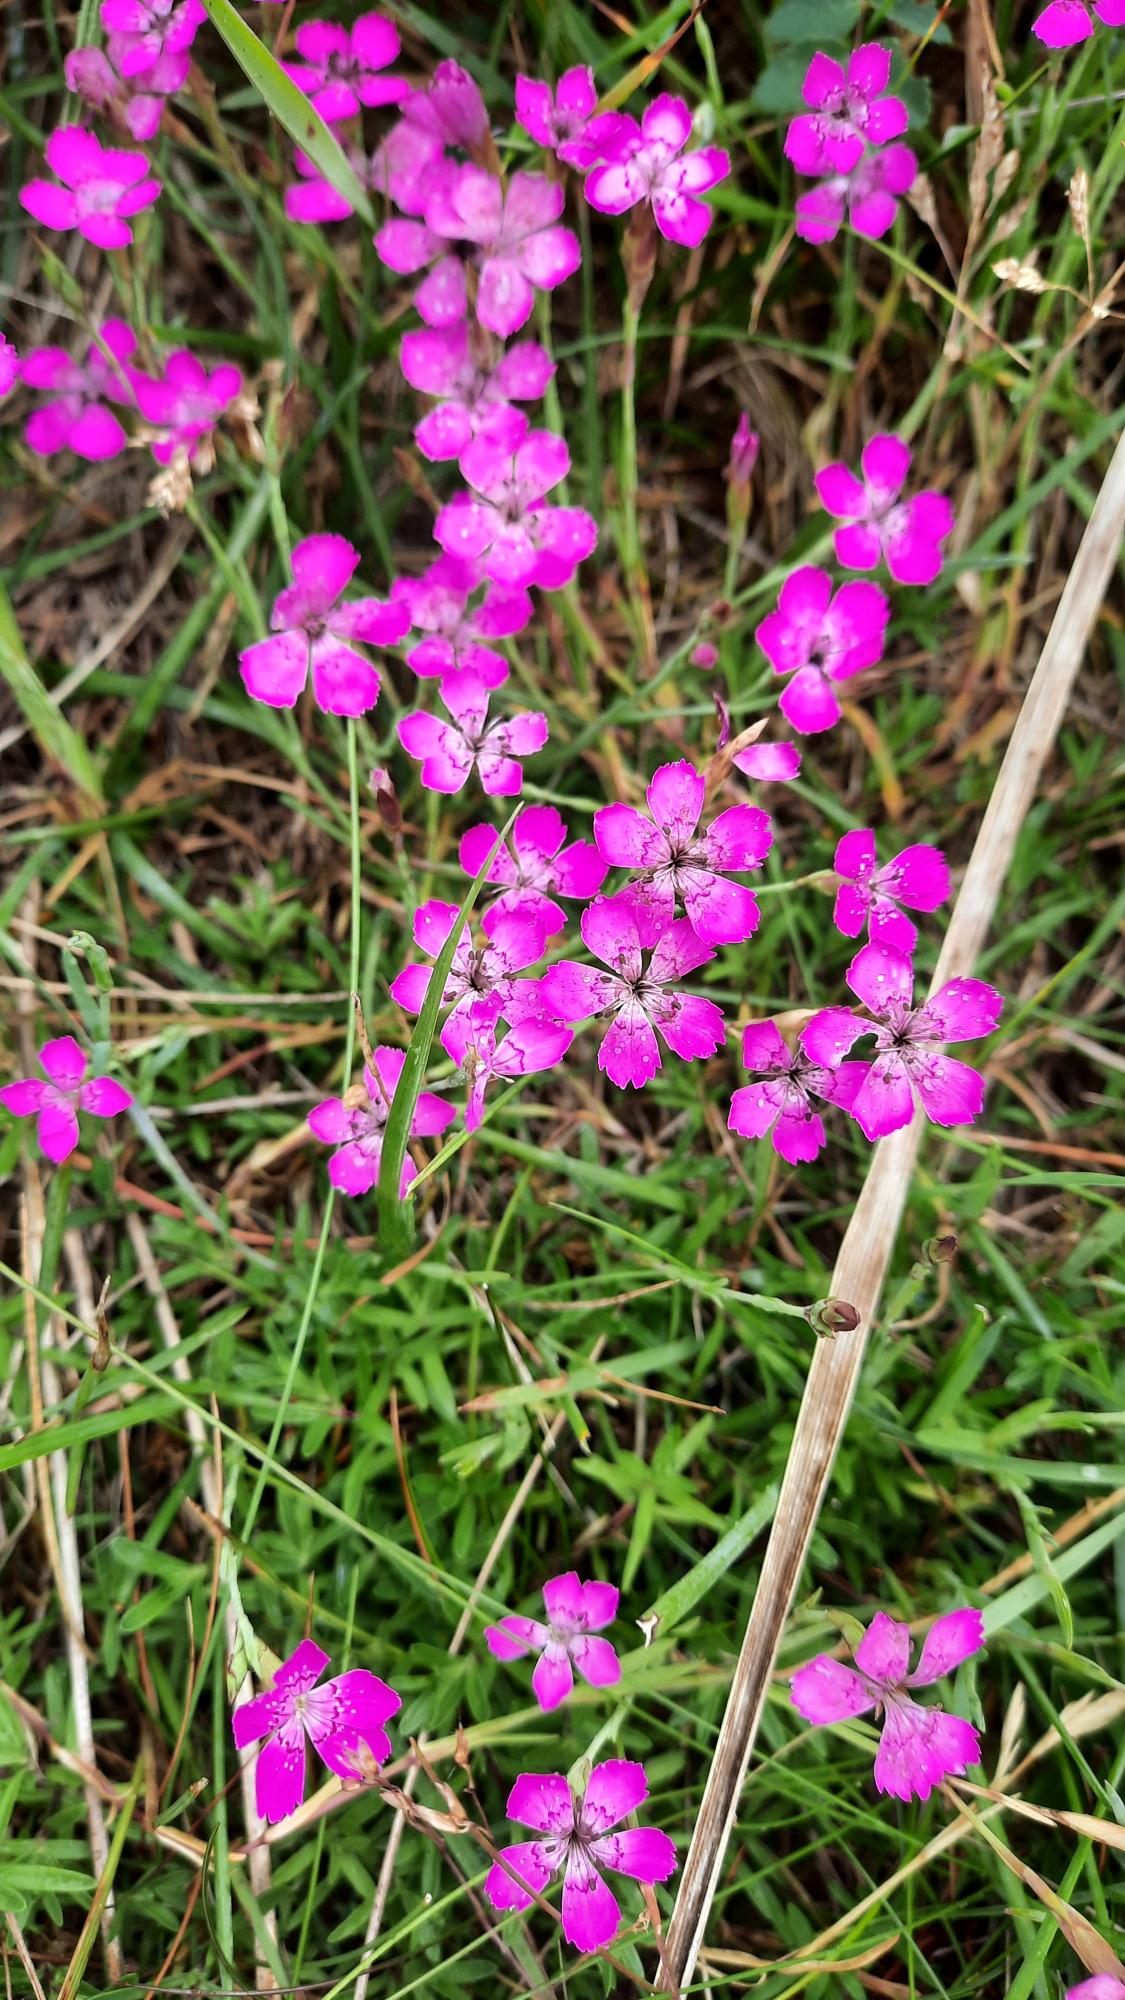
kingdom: Plantae
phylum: Tracheophyta
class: Magnoliopsida
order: Caryophyllales
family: Caryophyllaceae
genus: Dianthus
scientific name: Dianthus deltoides
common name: Bakke-nellike
